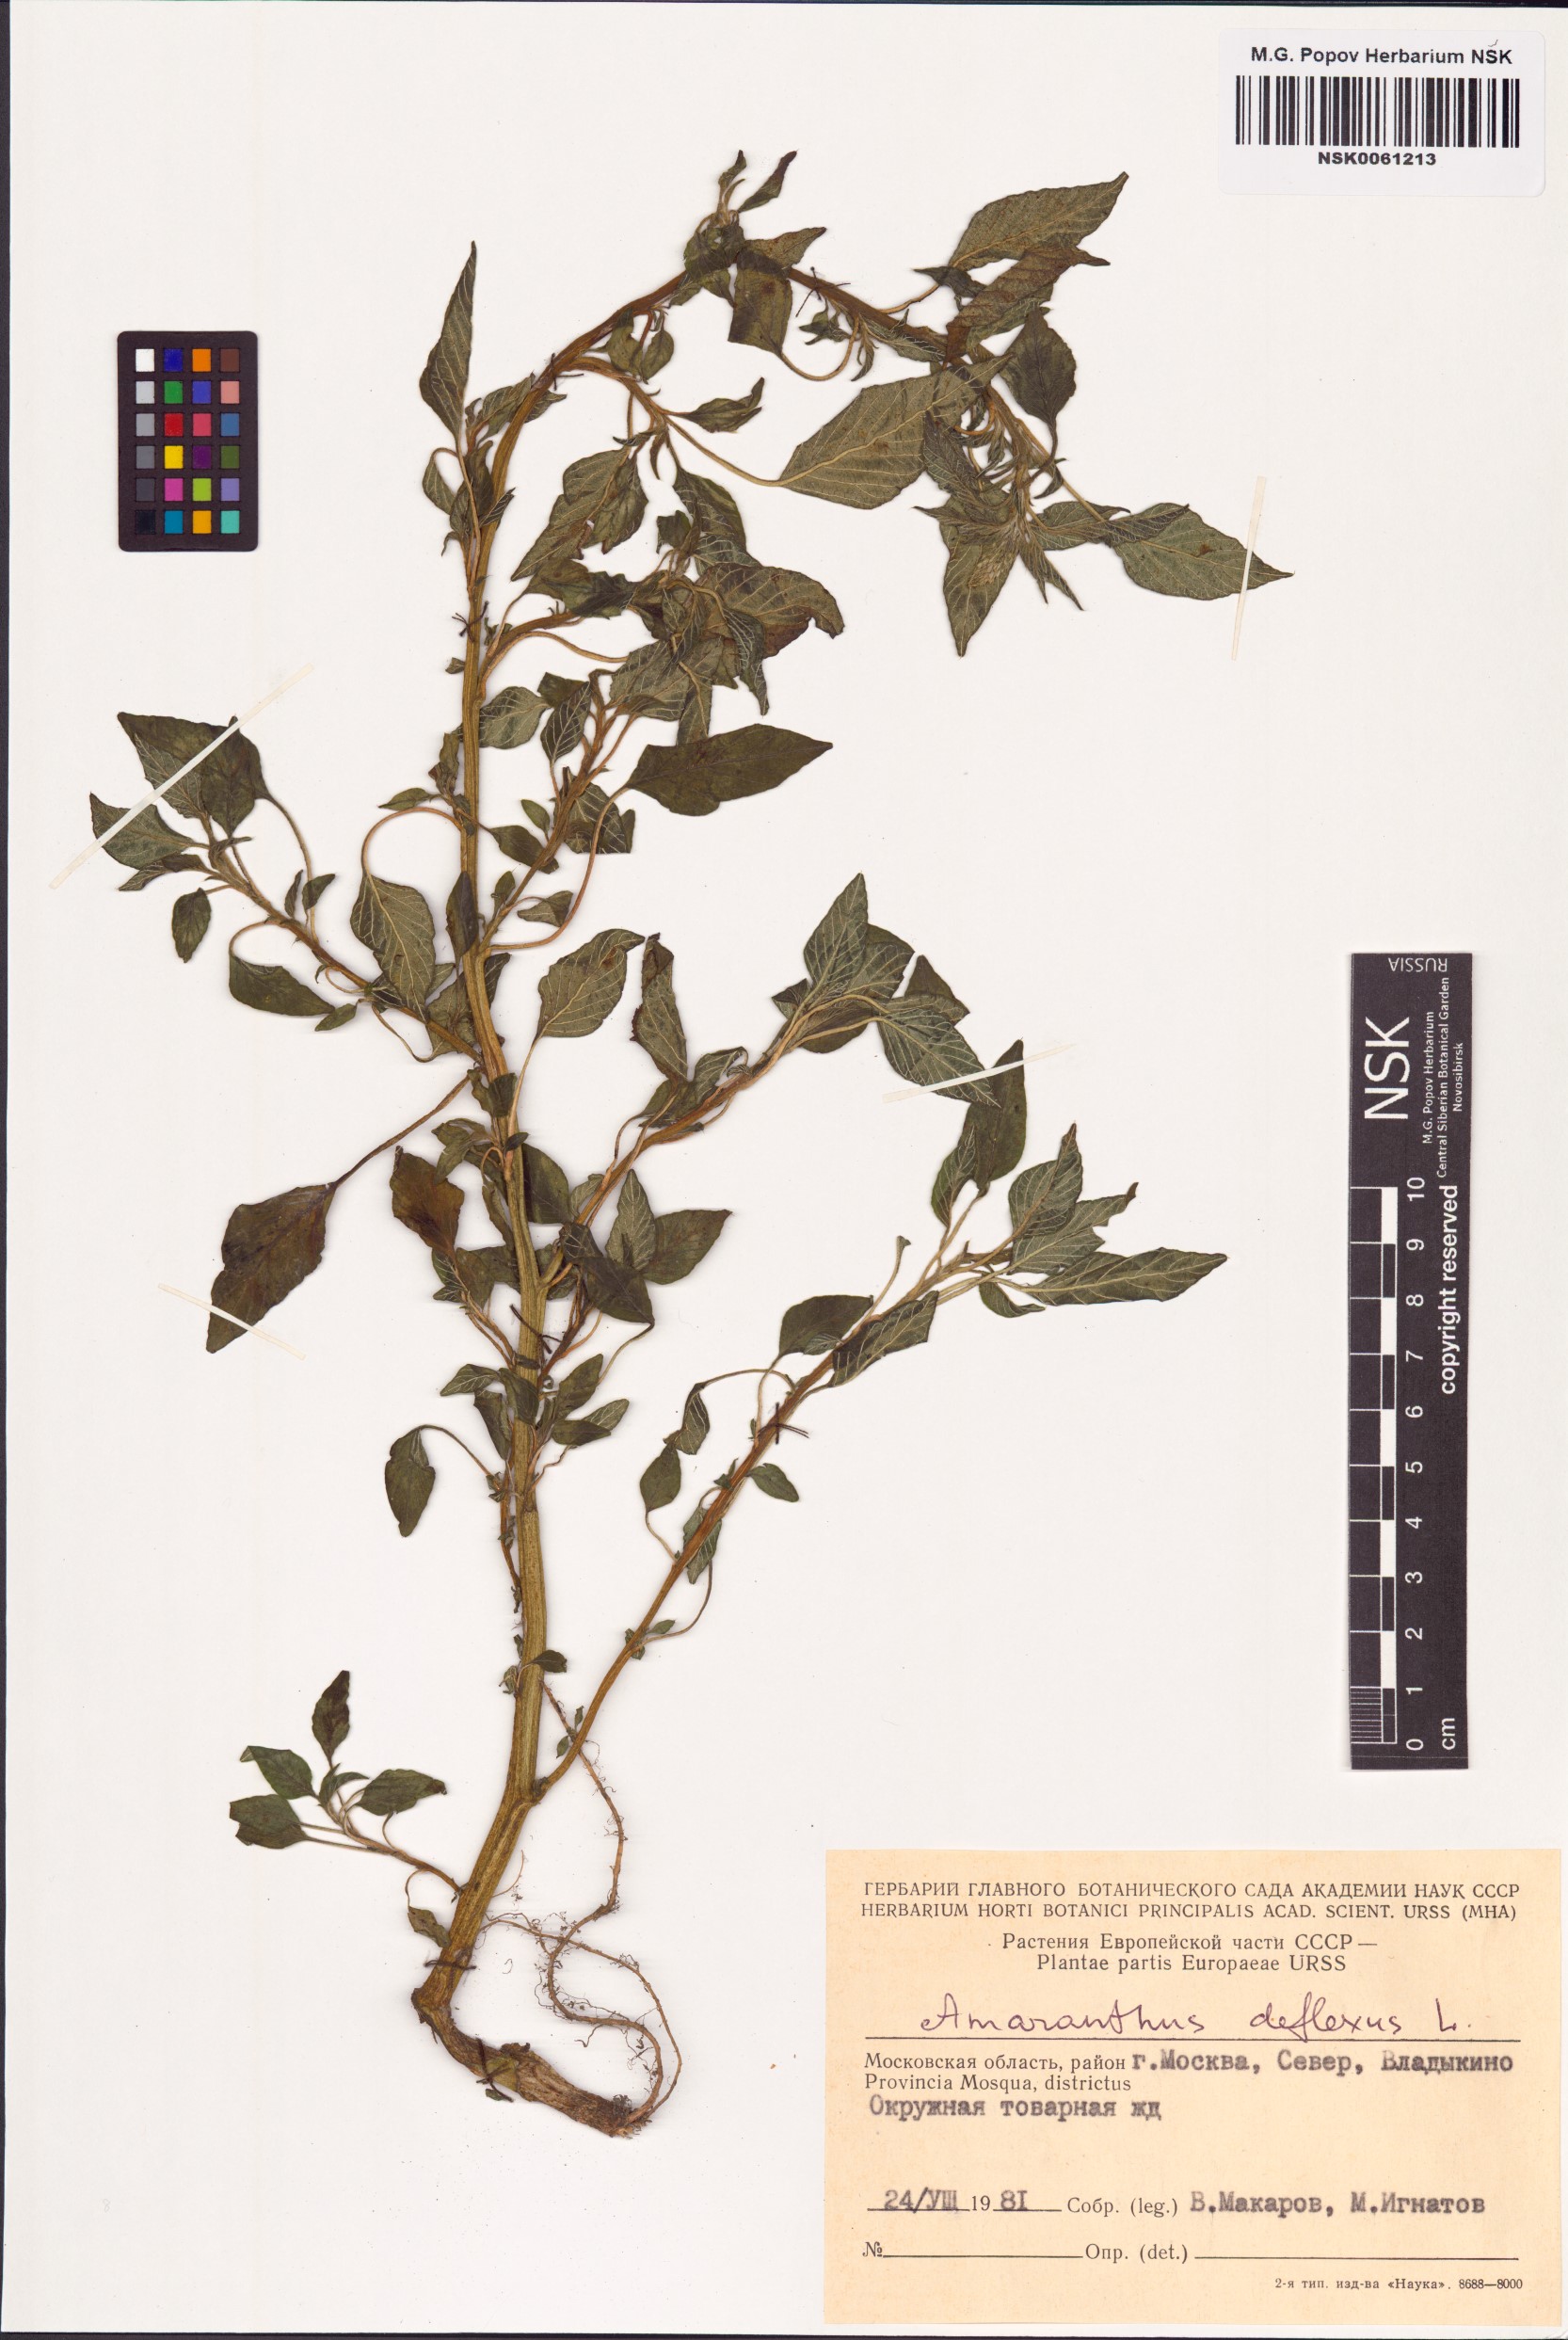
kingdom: Plantae
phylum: Tracheophyta
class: Magnoliopsida
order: Caryophyllales
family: Amaranthaceae
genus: Amaranthus
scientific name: Amaranthus deflexus
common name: Perennial pigweed
